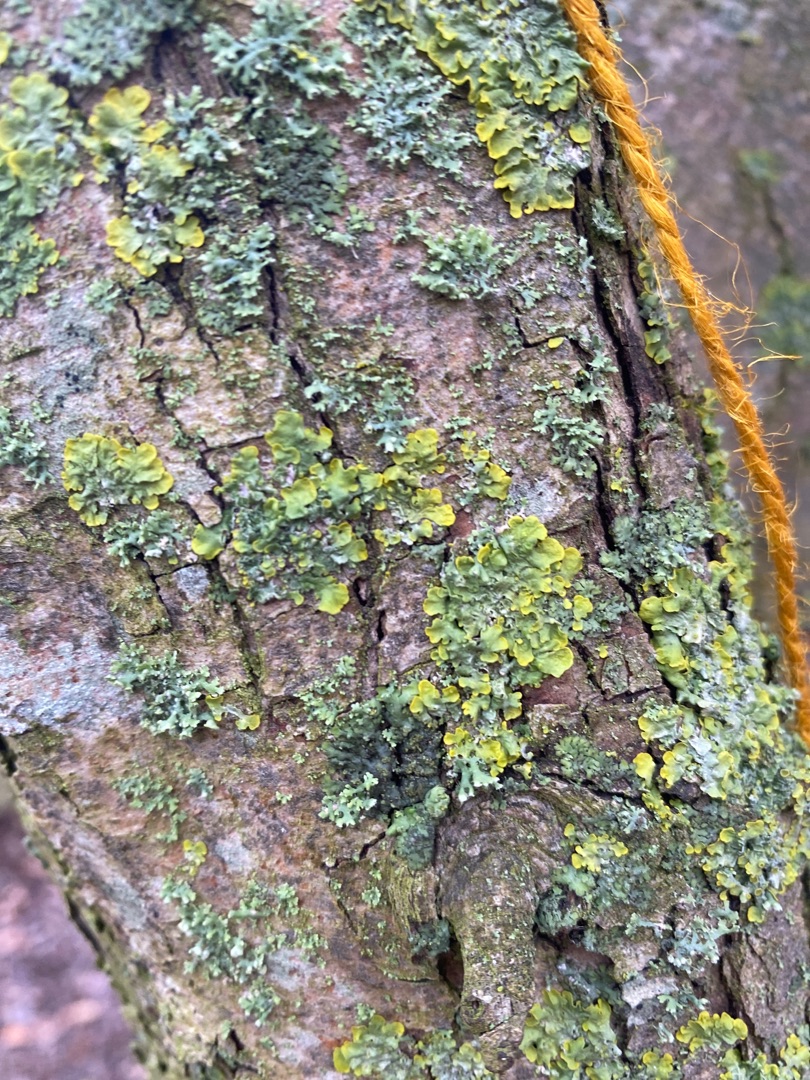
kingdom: Fungi
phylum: Ascomycota
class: Lecanoromycetes
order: Teloschistales
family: Teloschistaceae
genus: Xanthoria
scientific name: Xanthoria parietina
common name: Almindelig væggelav
